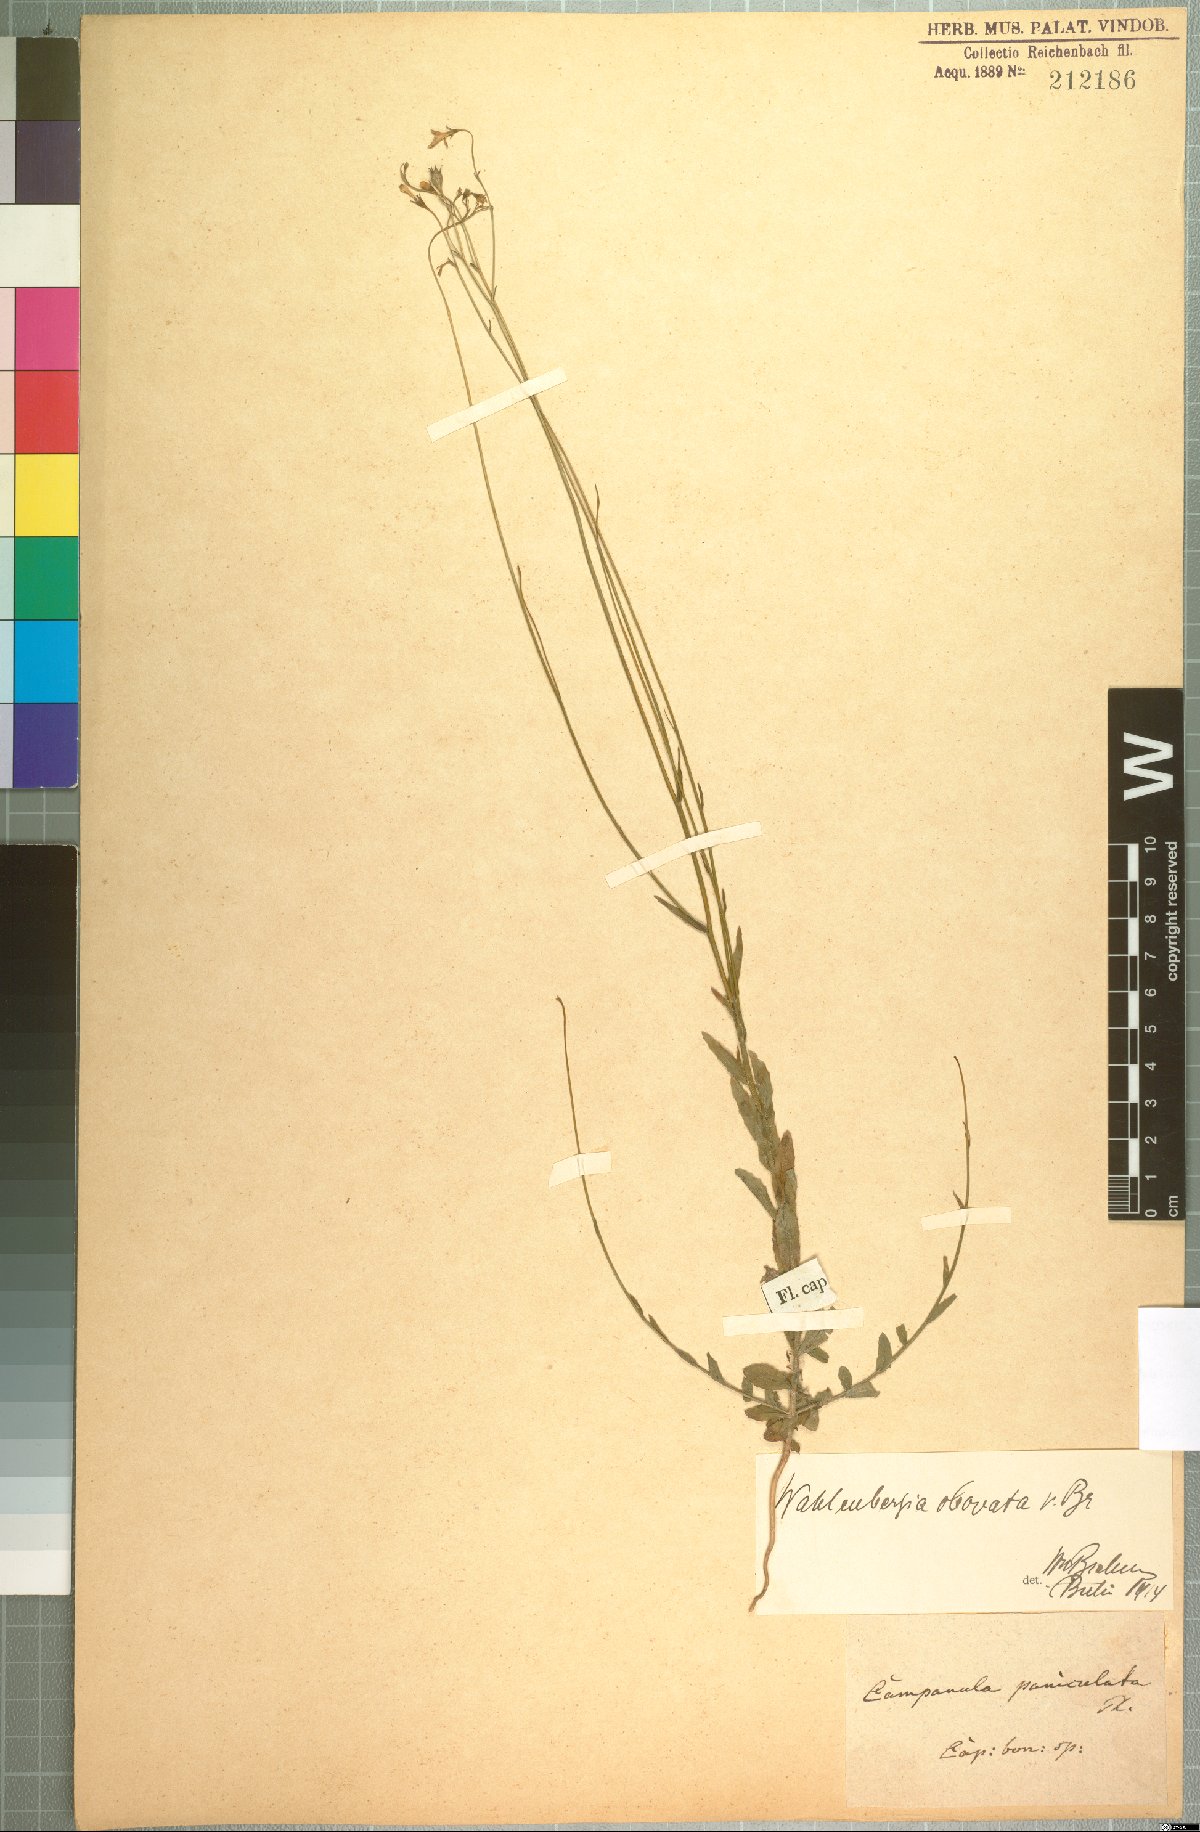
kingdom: Plantae
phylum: Tracheophyta
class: Magnoliopsida
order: Asterales
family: Campanulaceae
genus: Wahlenbergia
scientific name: Wahlenbergia obovata
